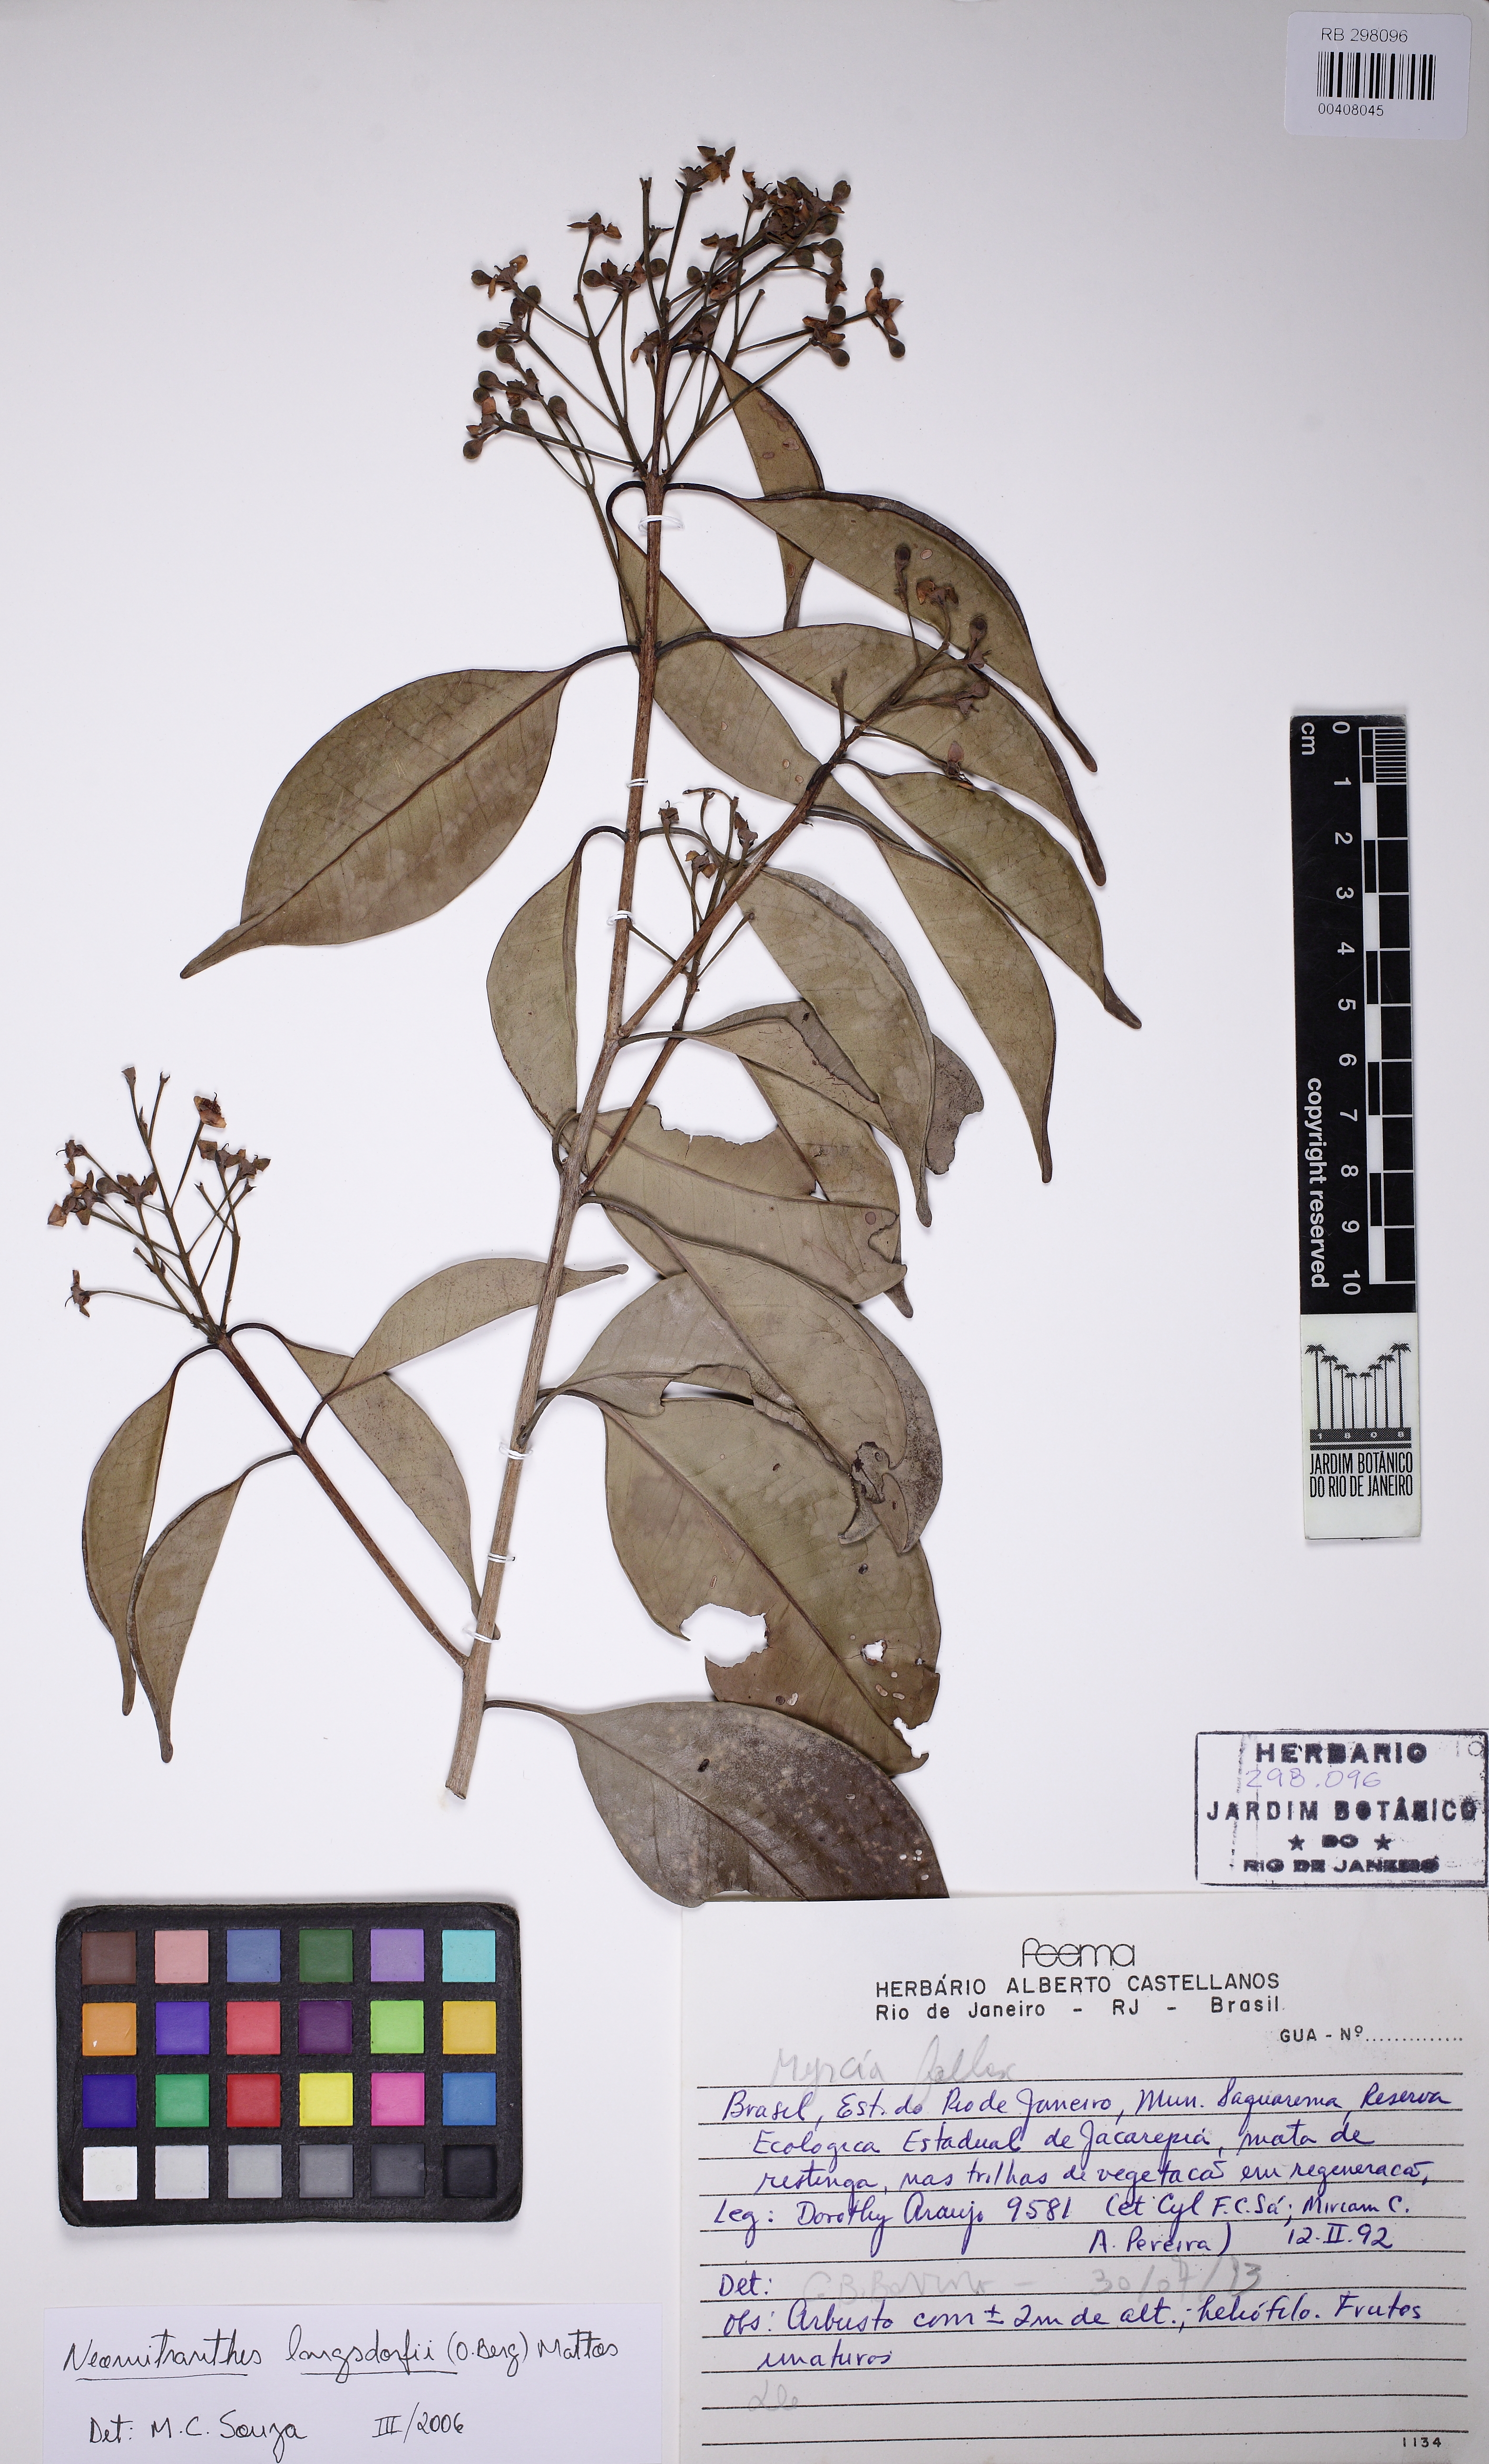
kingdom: Plantae
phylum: Tracheophyta
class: Magnoliopsida
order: Myrtales
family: Myrtaceae
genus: Neomitranthes
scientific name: Neomitranthes langsdorffii
